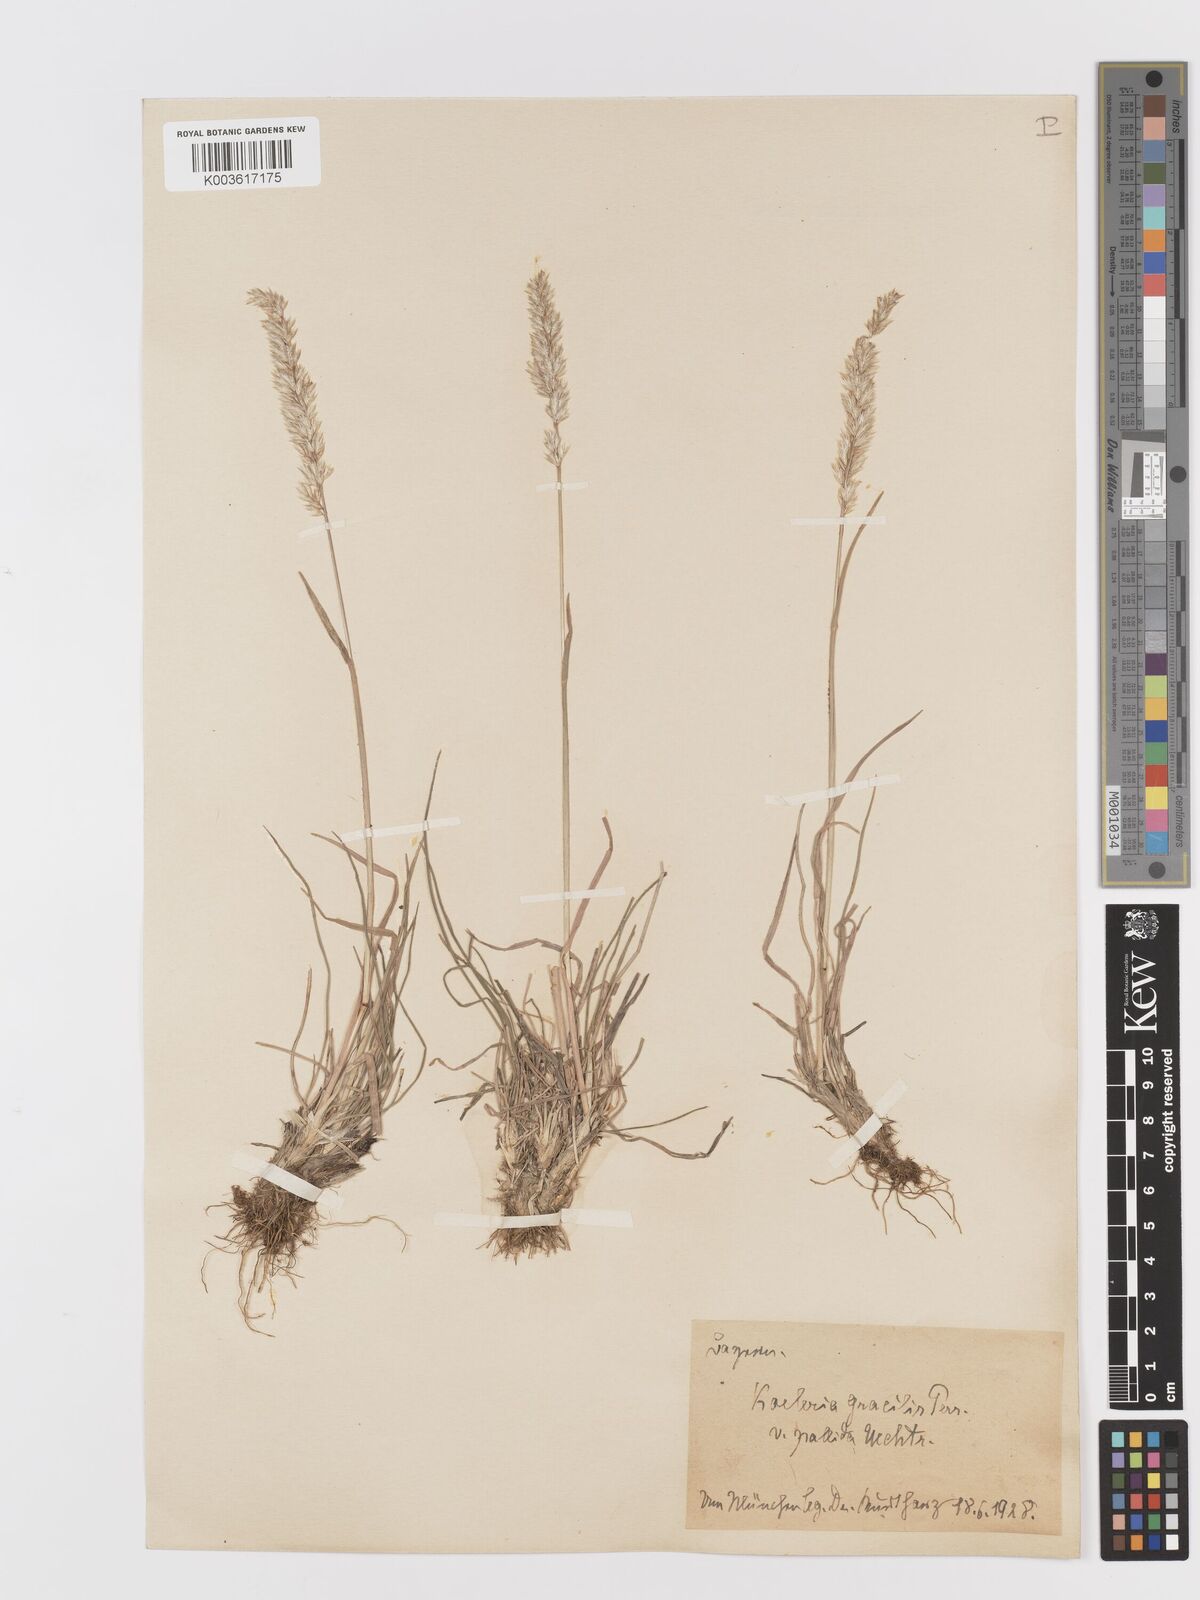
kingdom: Plantae
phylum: Tracheophyta
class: Liliopsida
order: Poales
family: Poaceae
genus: Koeleria
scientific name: Koeleria macrantha
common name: Crested hair-grass
